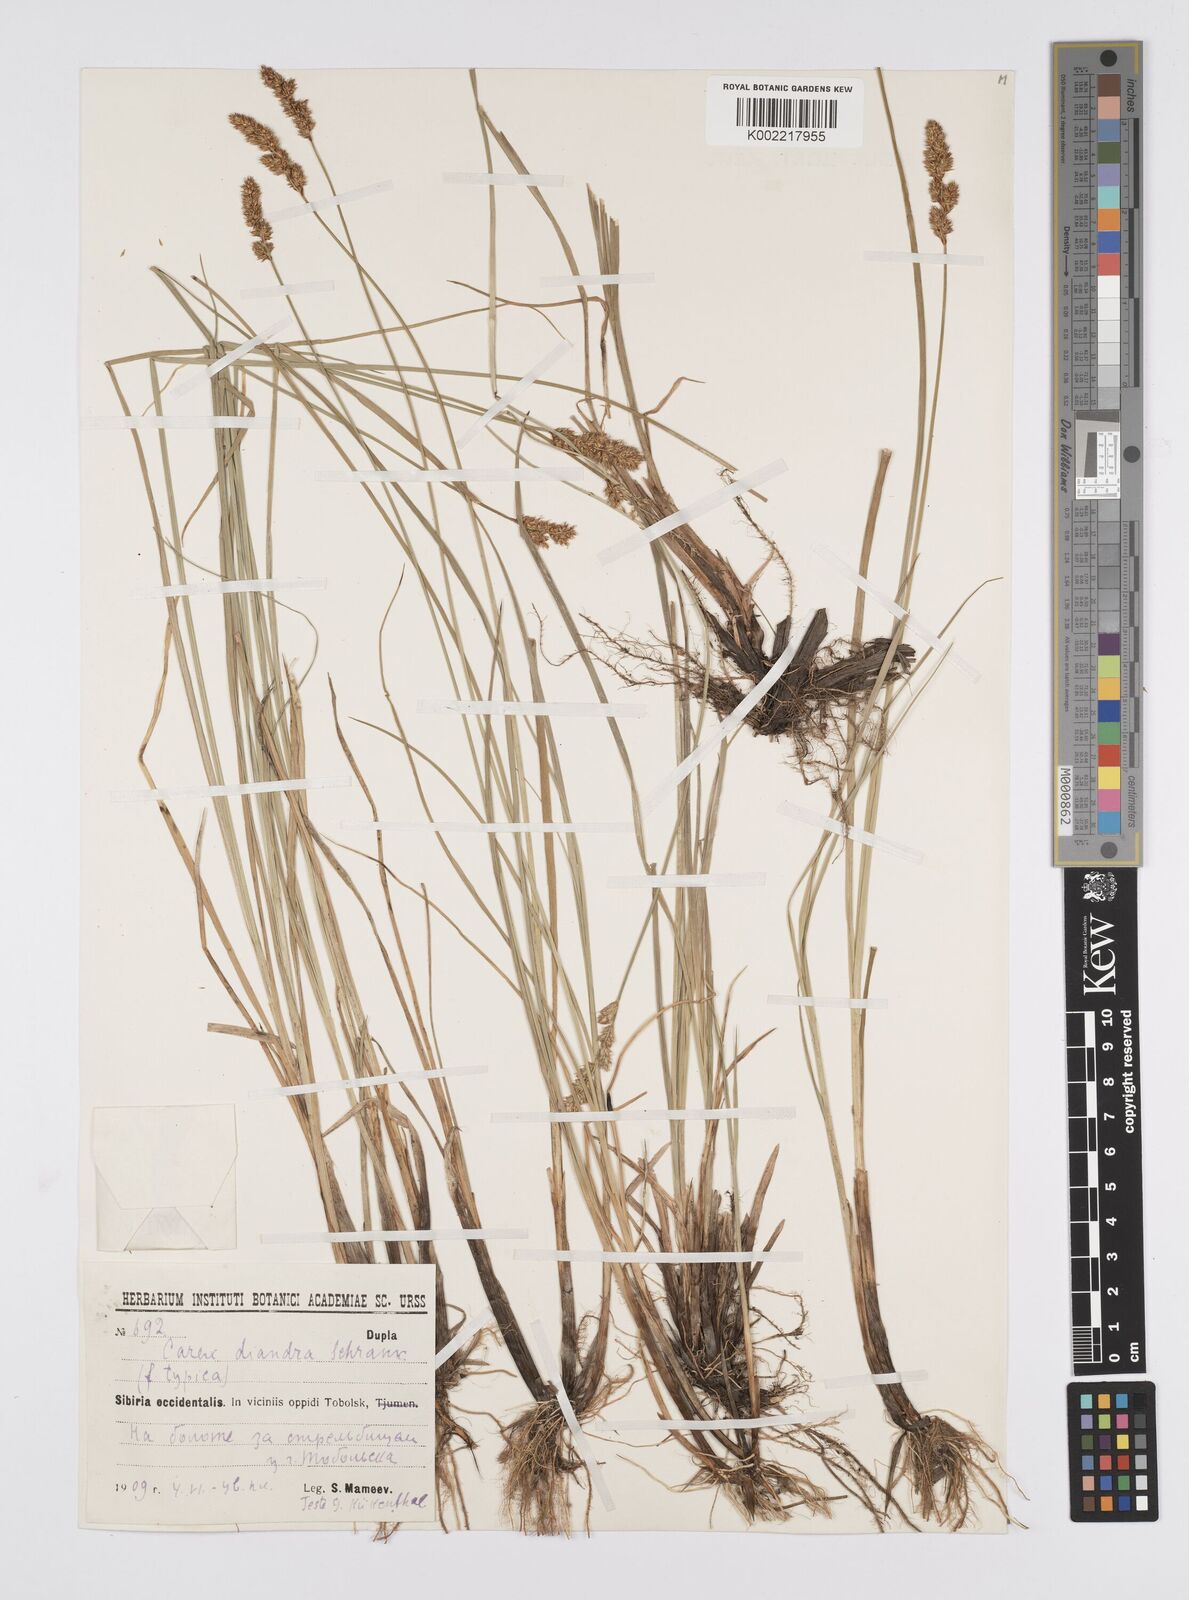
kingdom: Plantae
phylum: Tracheophyta
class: Liliopsida
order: Poales
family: Cyperaceae
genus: Carex
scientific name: Carex diandra
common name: Lesser tussock-sedge
